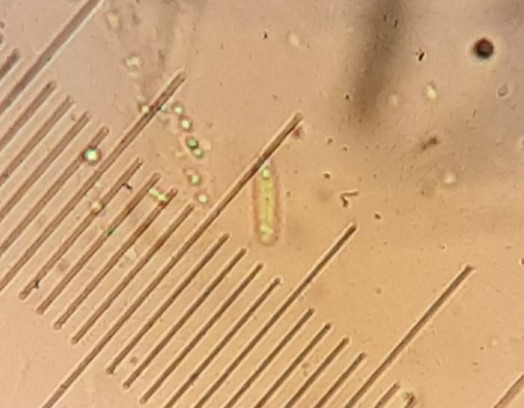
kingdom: Fungi
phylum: Ascomycota
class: Sordariomycetes
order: Diaporthales
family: Valsaceae
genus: Amphiporthe
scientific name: Amphiporthe tiliae
